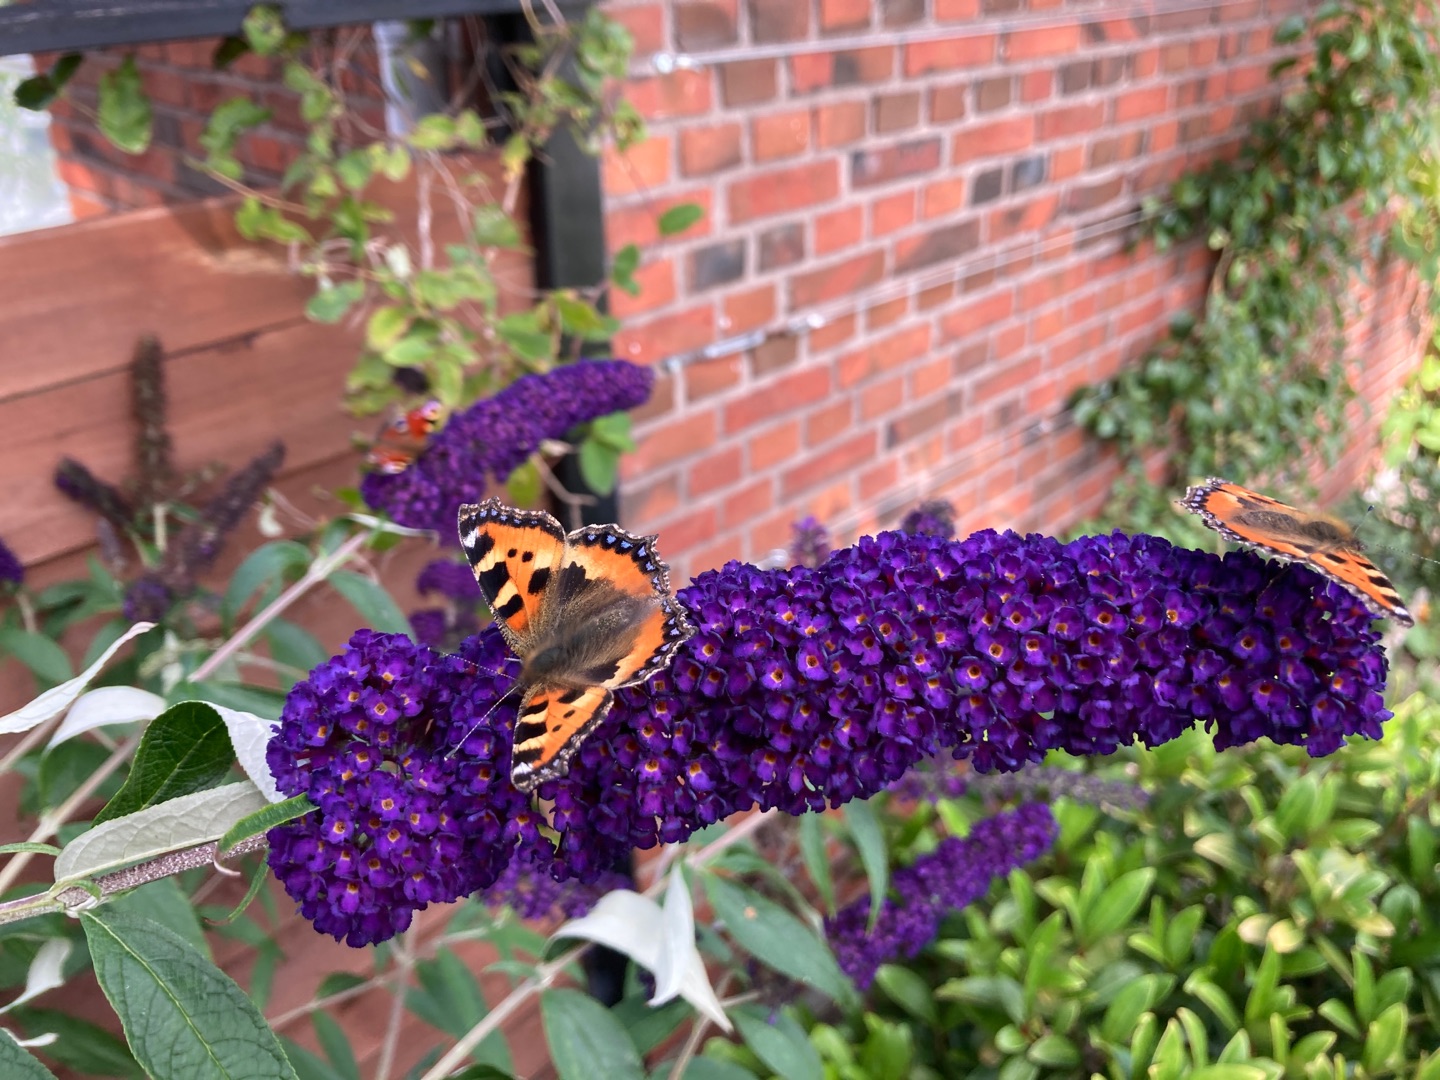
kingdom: Animalia
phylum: Arthropoda
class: Insecta
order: Lepidoptera
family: Nymphalidae
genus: Aglais
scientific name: Aglais urticae
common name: Nældens takvinge
